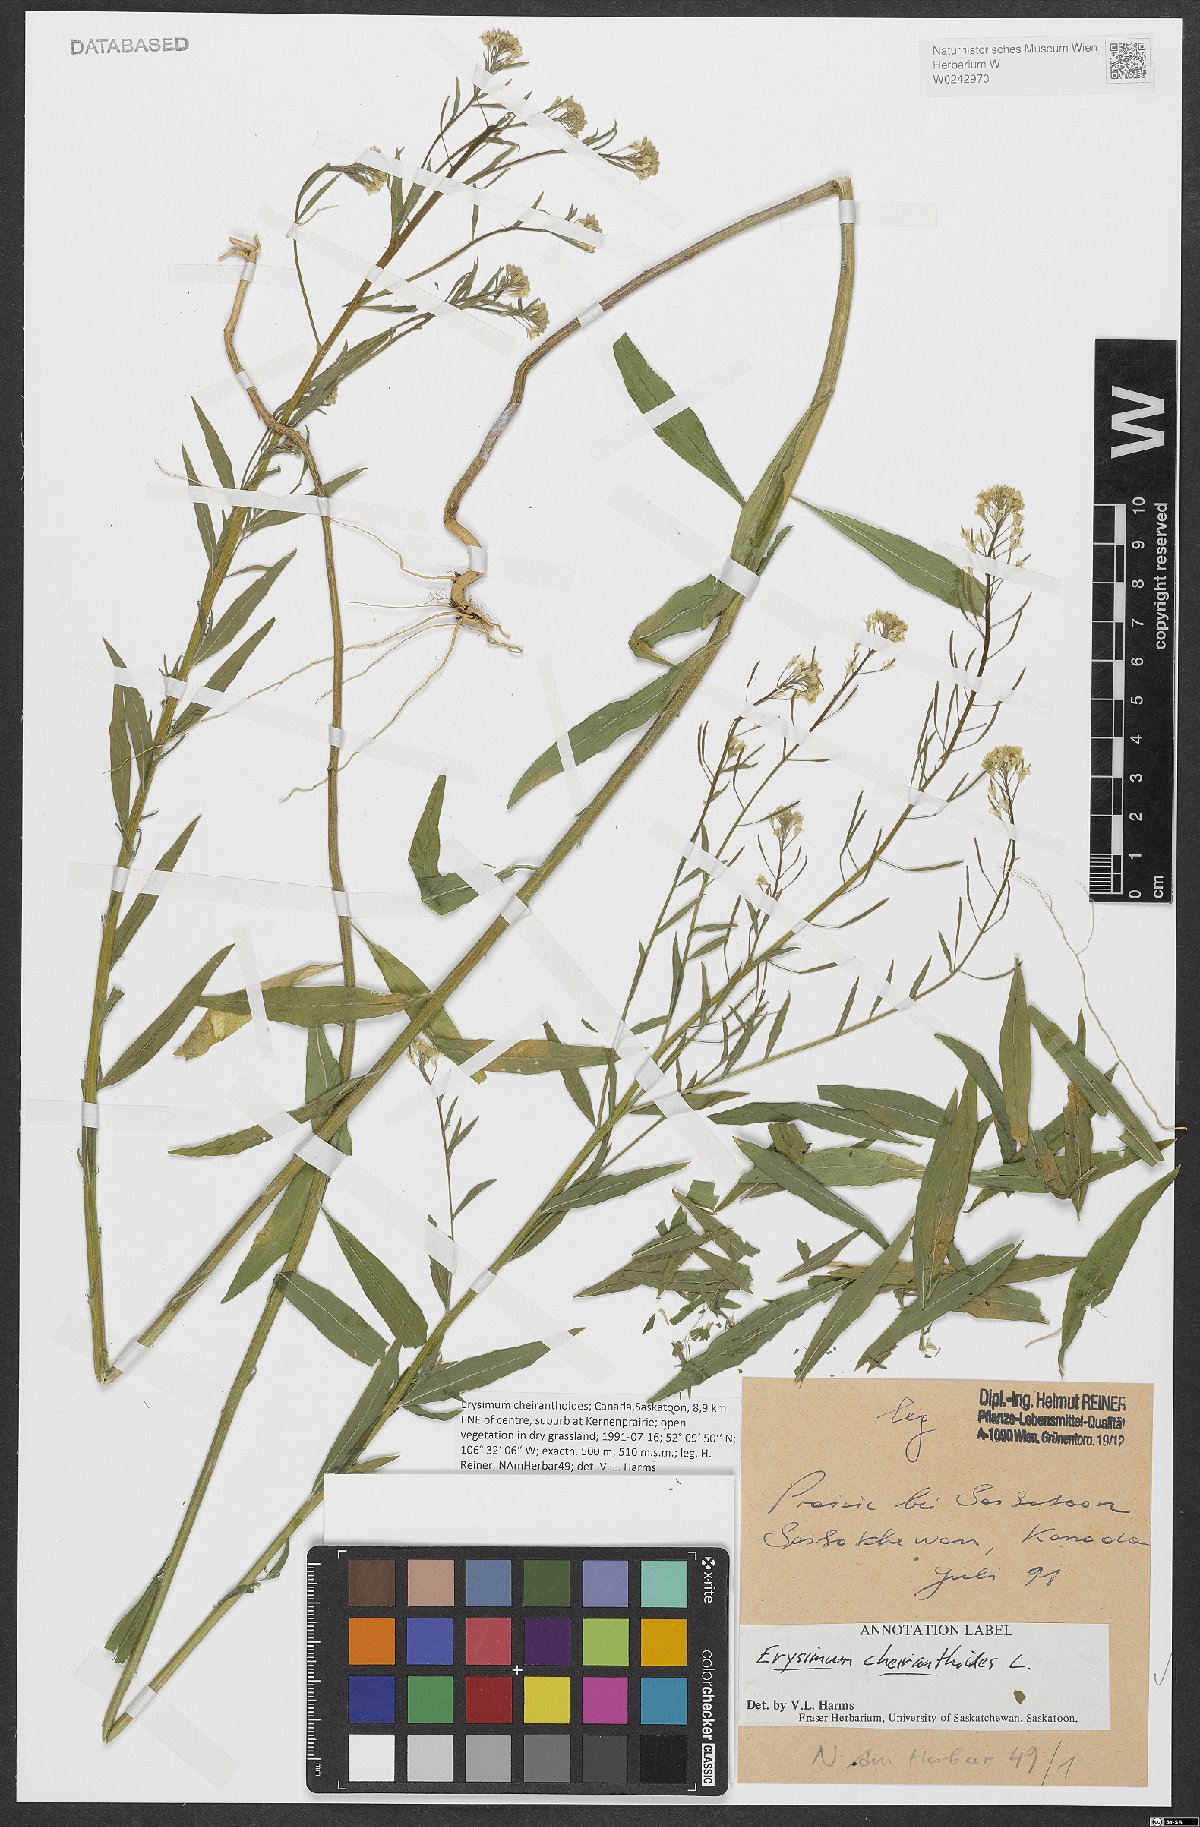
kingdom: Plantae
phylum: Tracheophyta
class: Magnoliopsida
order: Brassicales
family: Brassicaceae
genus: Erysimum
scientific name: Erysimum cheiranthoides
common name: Treacle mustard
